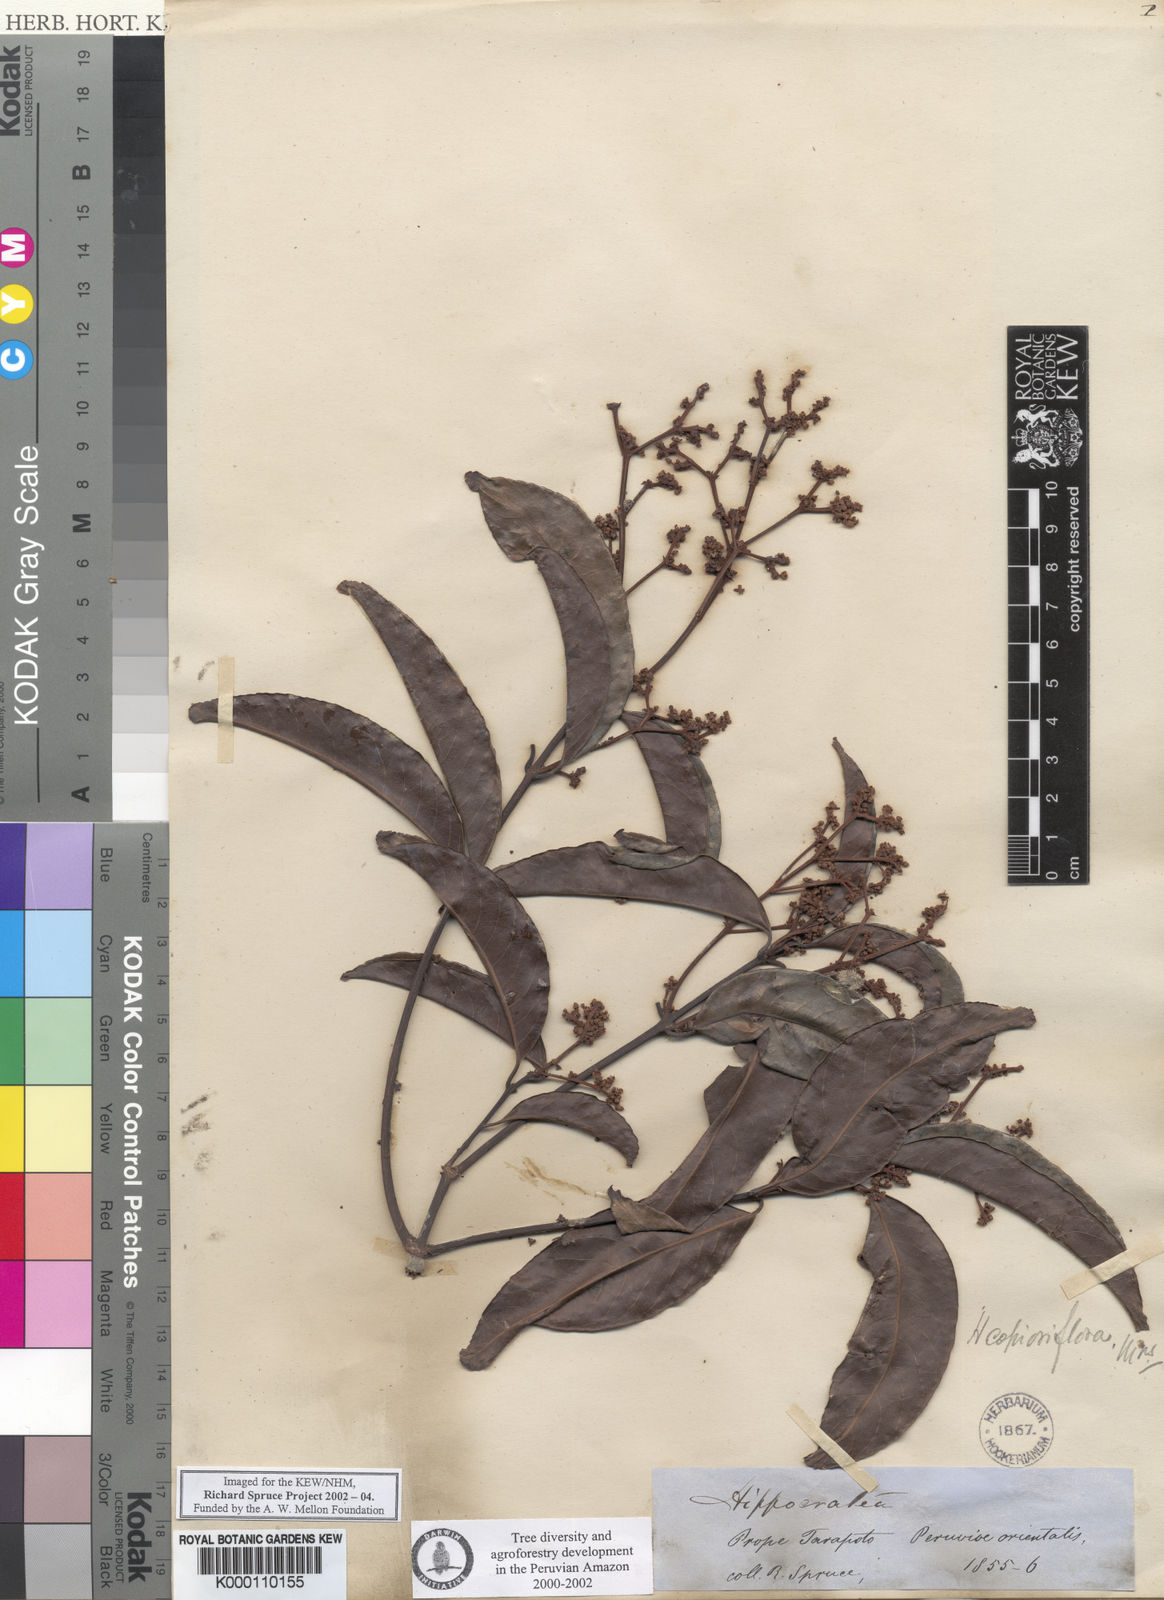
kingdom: Plantae
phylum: Tracheophyta
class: Magnoliopsida
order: Celastrales
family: Celastraceae
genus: Hippocratea
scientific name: Hippocratea volubilis
